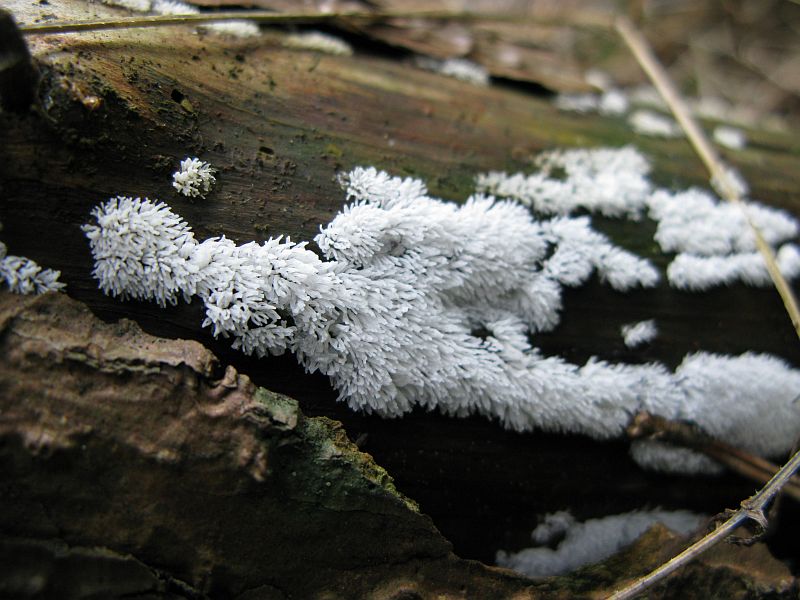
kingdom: Protozoa
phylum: Mycetozoa
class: Protosteliomycetes
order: Ceratiomyxales
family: Ceratiomyxaceae
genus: Ceratiomyxa
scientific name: Ceratiomyxa fruticulosa
